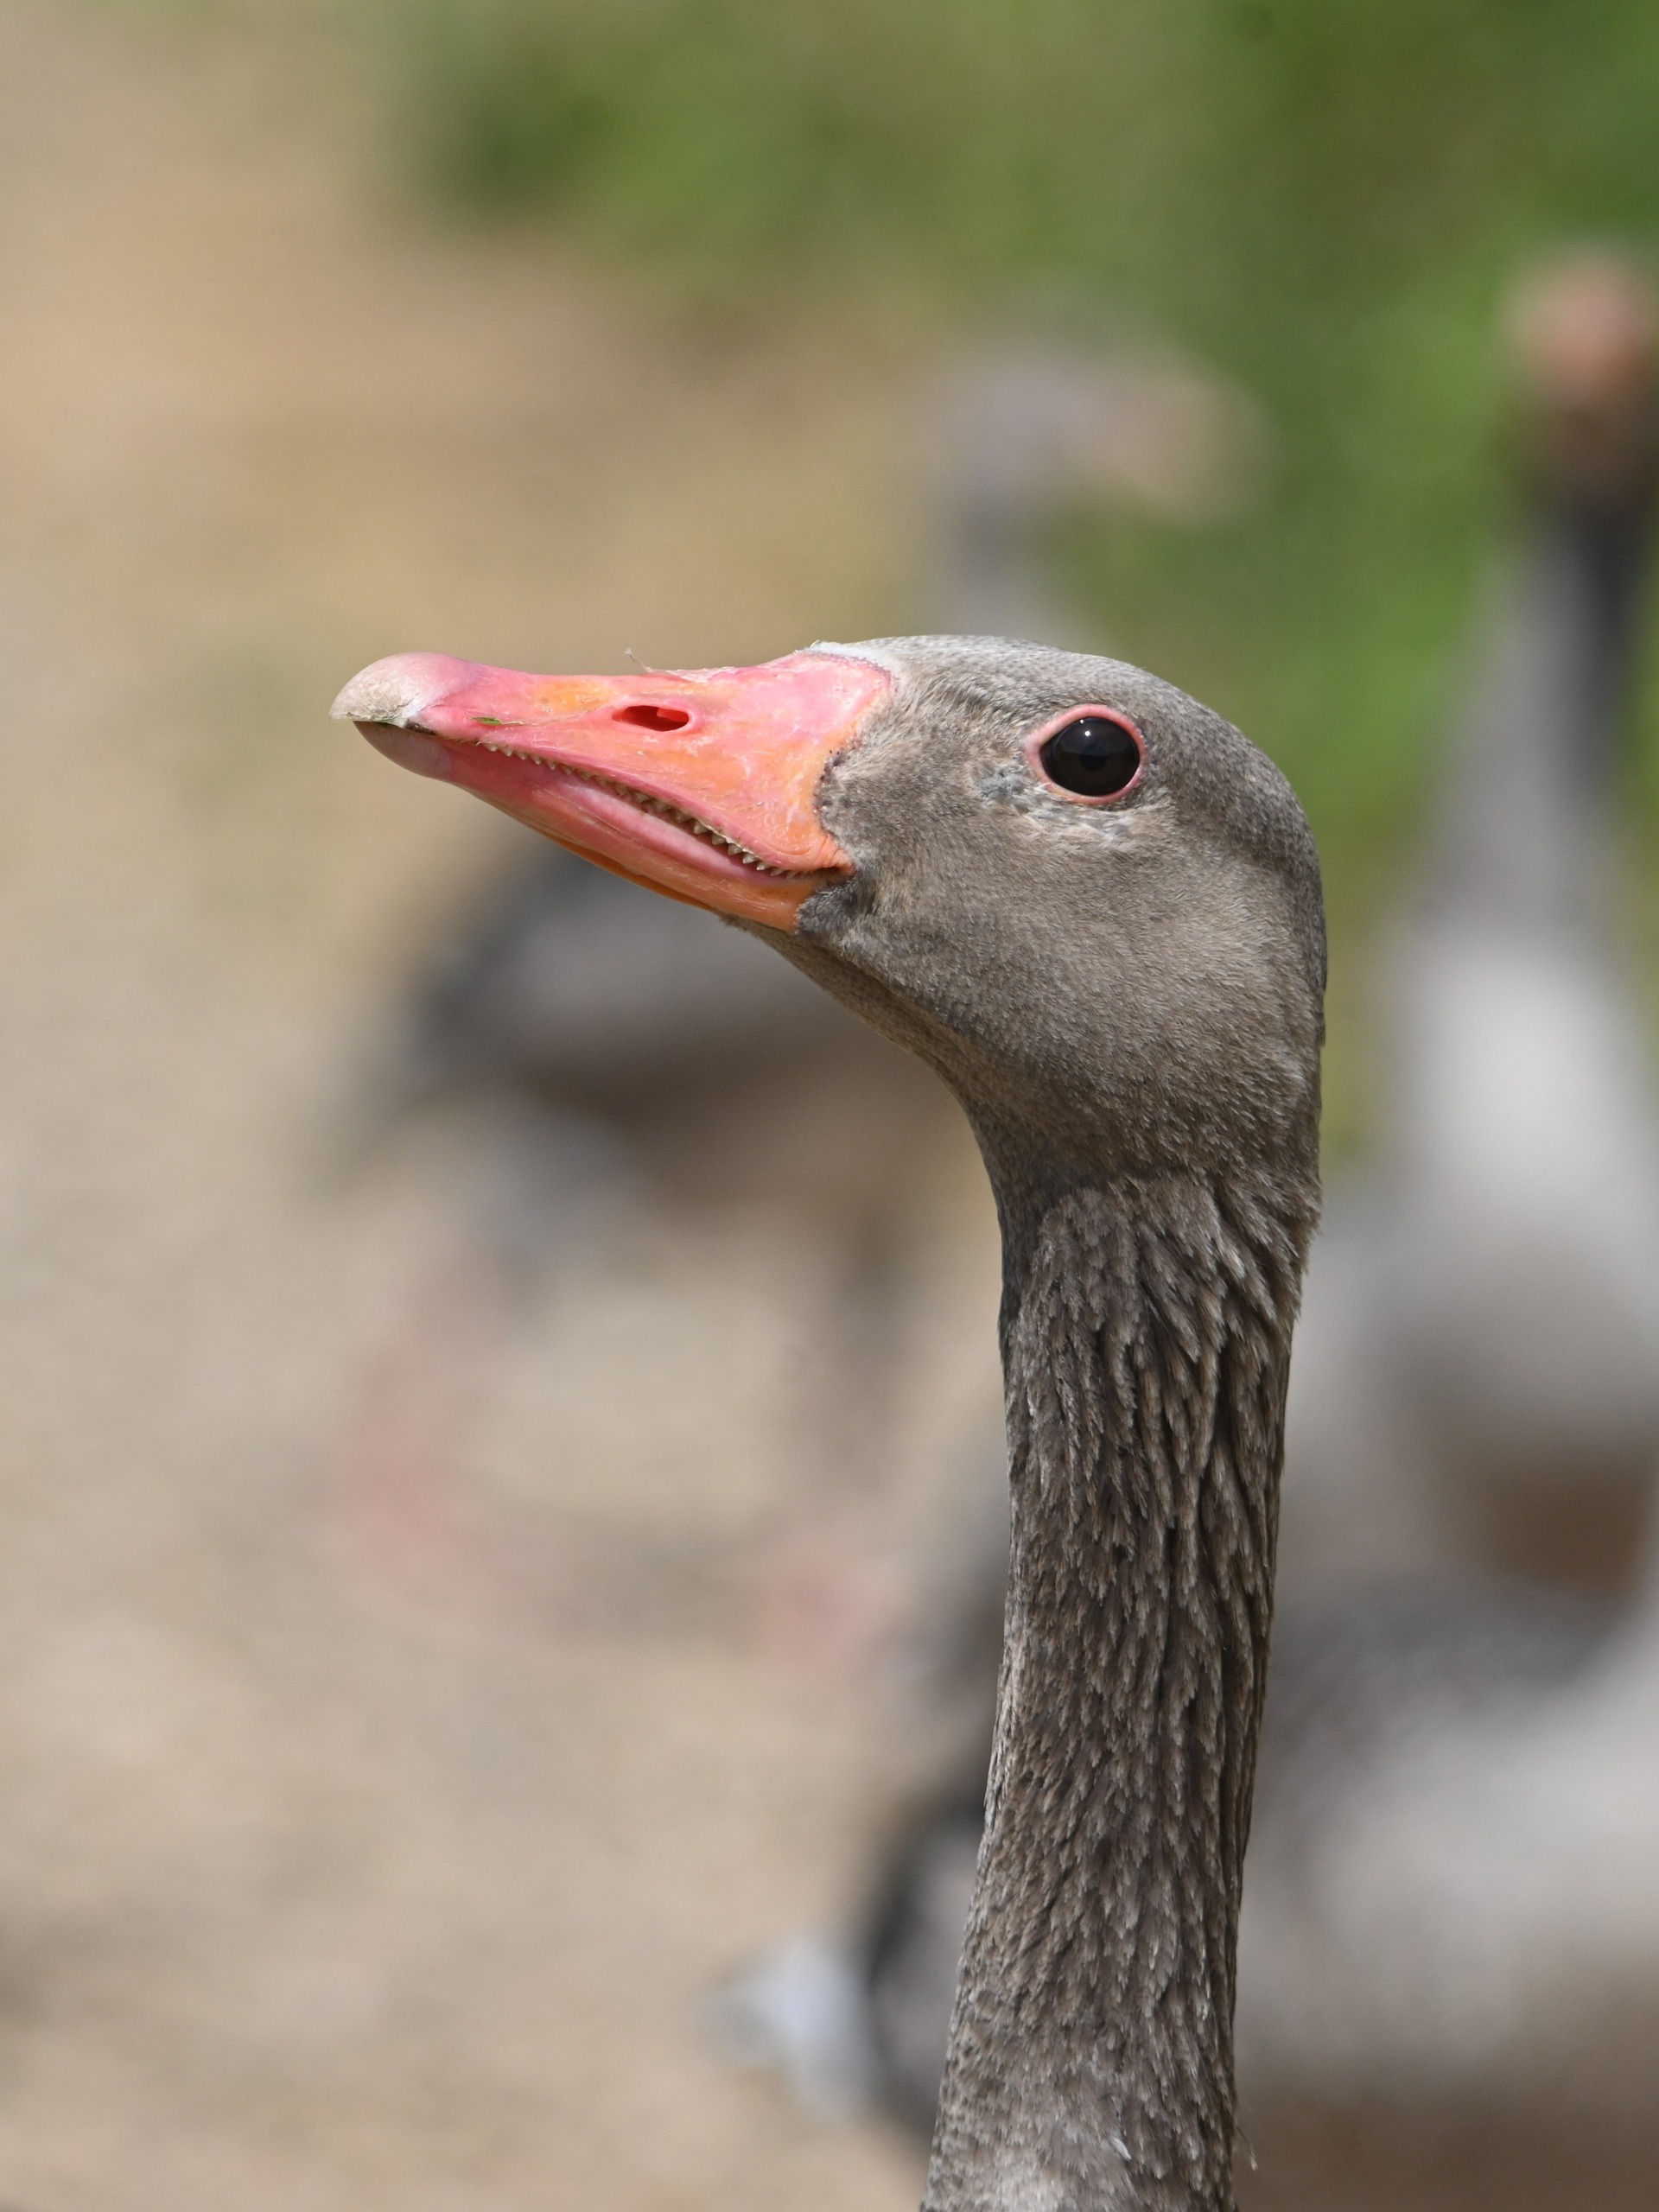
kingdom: Animalia
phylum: Chordata
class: Aves
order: Anseriformes
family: Anatidae
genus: Anser
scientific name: Anser anser
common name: Grågås
